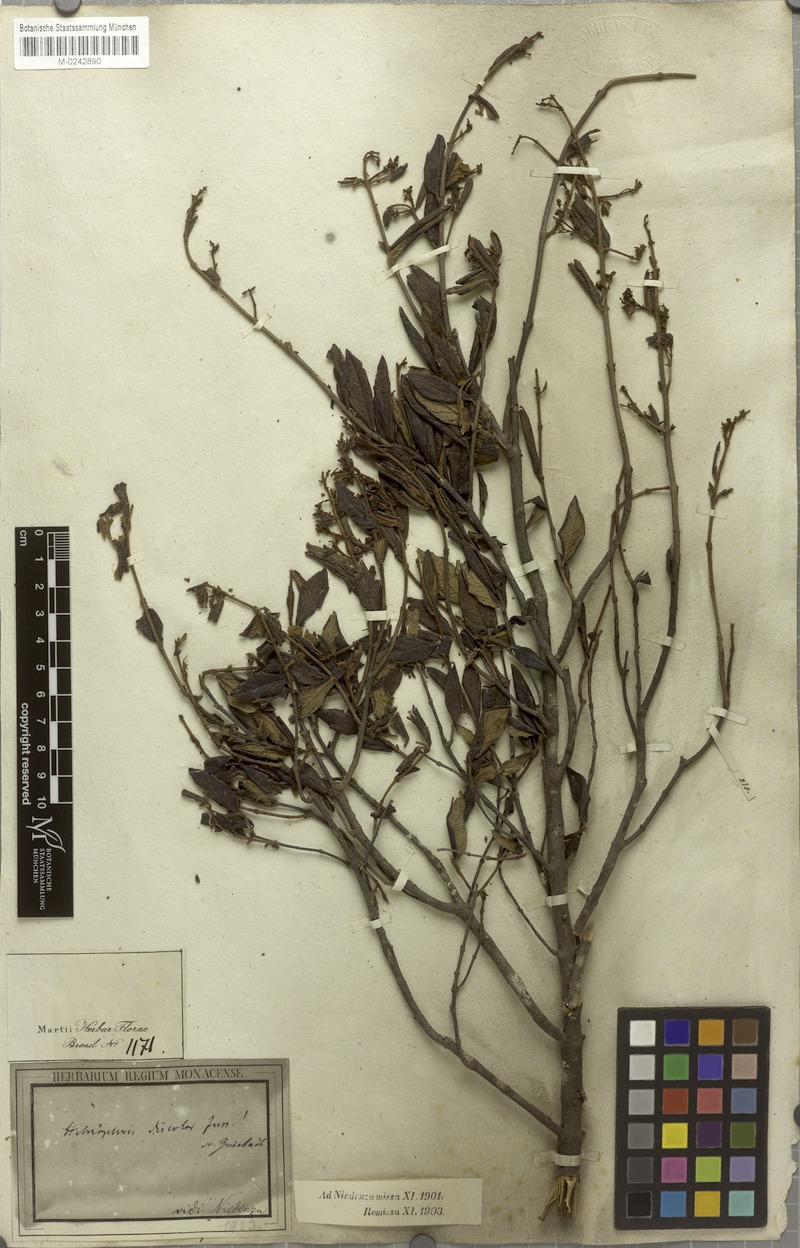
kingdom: Plantae
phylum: Tracheophyta
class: Magnoliopsida
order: Malpighiales
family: Malpighiaceae
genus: Heteropterys
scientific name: Heteropterys campestris
